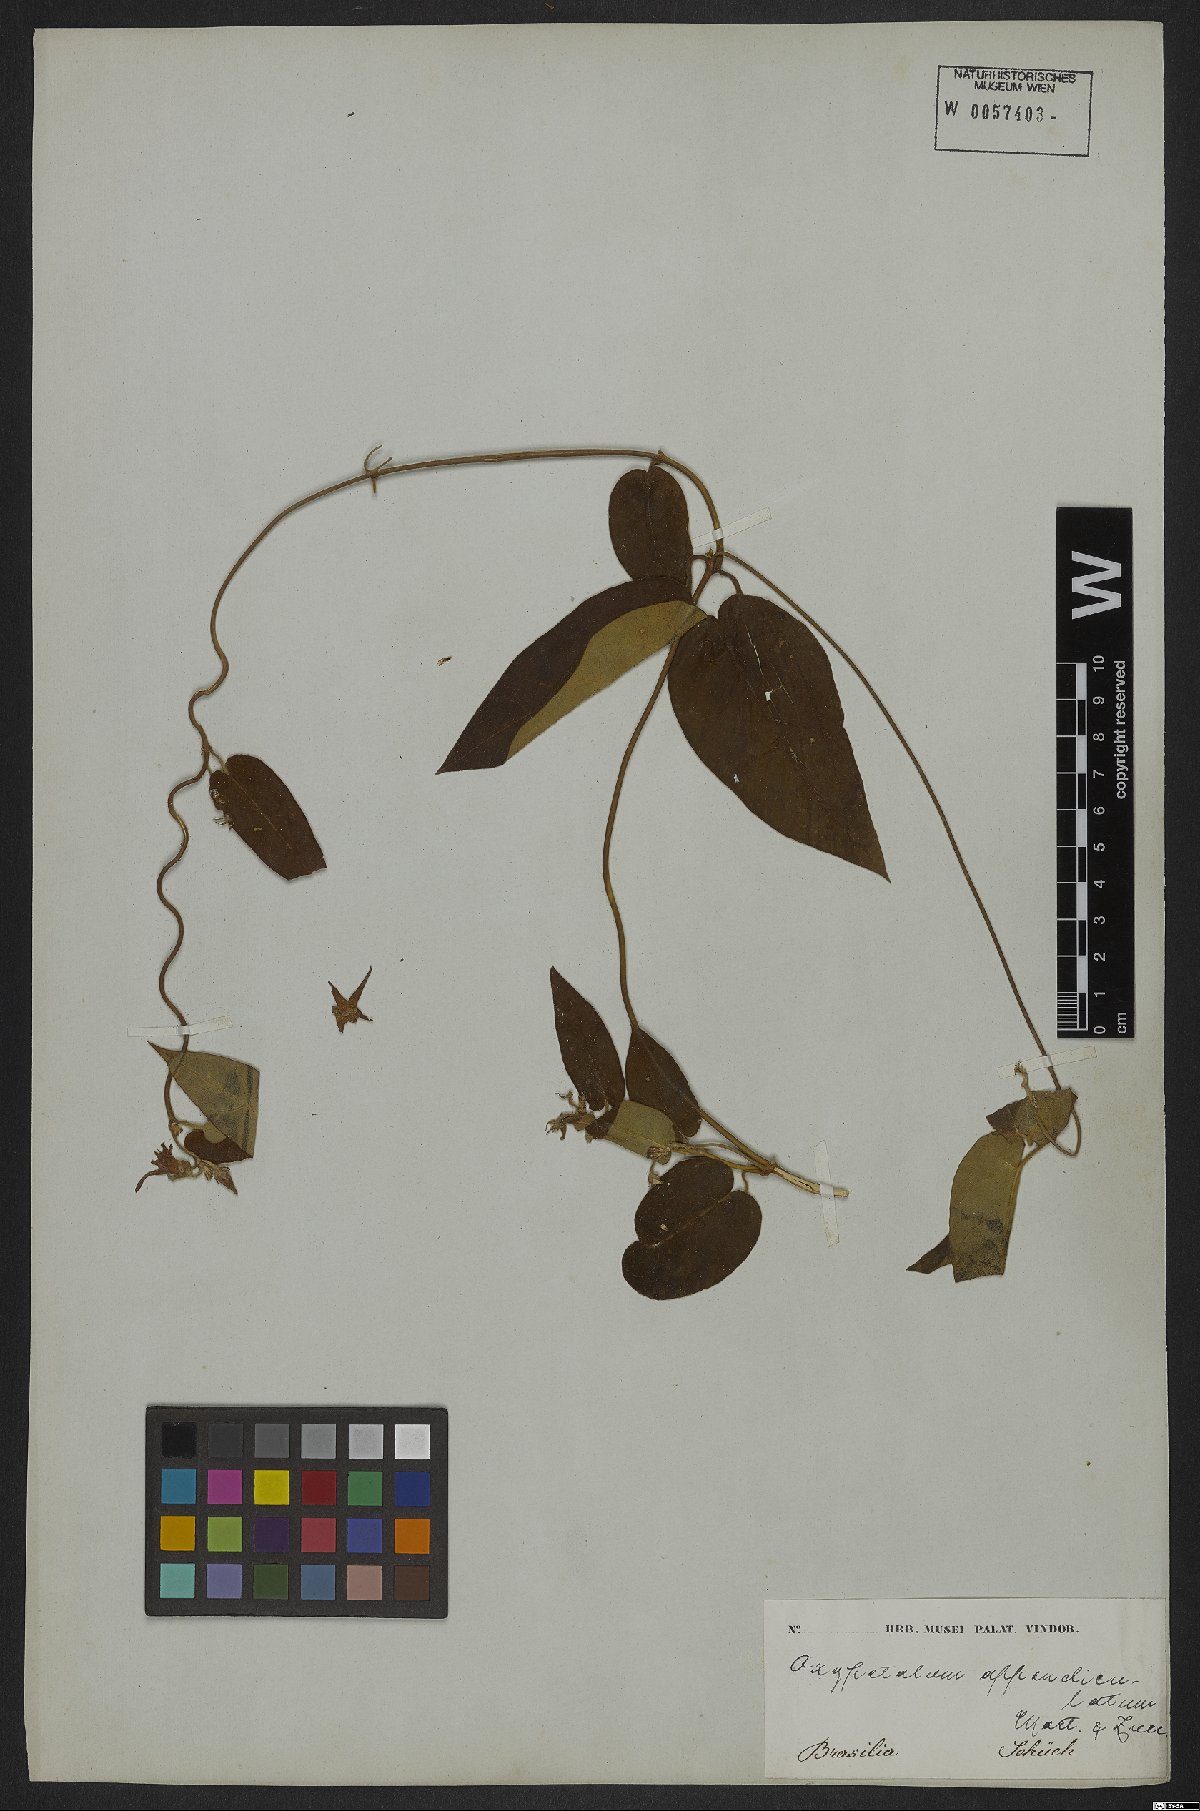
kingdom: Plantae
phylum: Tracheophyta
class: Magnoliopsida
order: Gentianales
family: Apocynaceae
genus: Oxypetalum
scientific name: Oxypetalum appendiculatum
